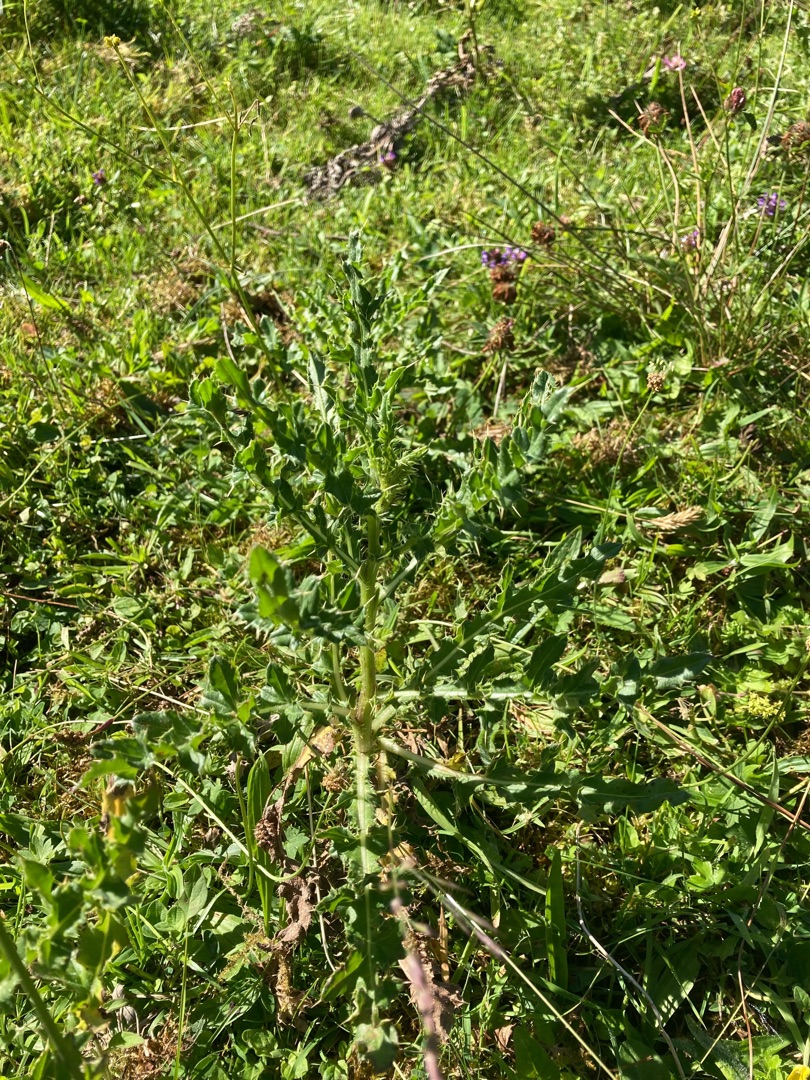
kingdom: Plantae
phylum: Tracheophyta
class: Magnoliopsida
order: Asterales
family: Asteraceae
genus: Cirsium
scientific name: Cirsium arvense
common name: Ager-tidsel
